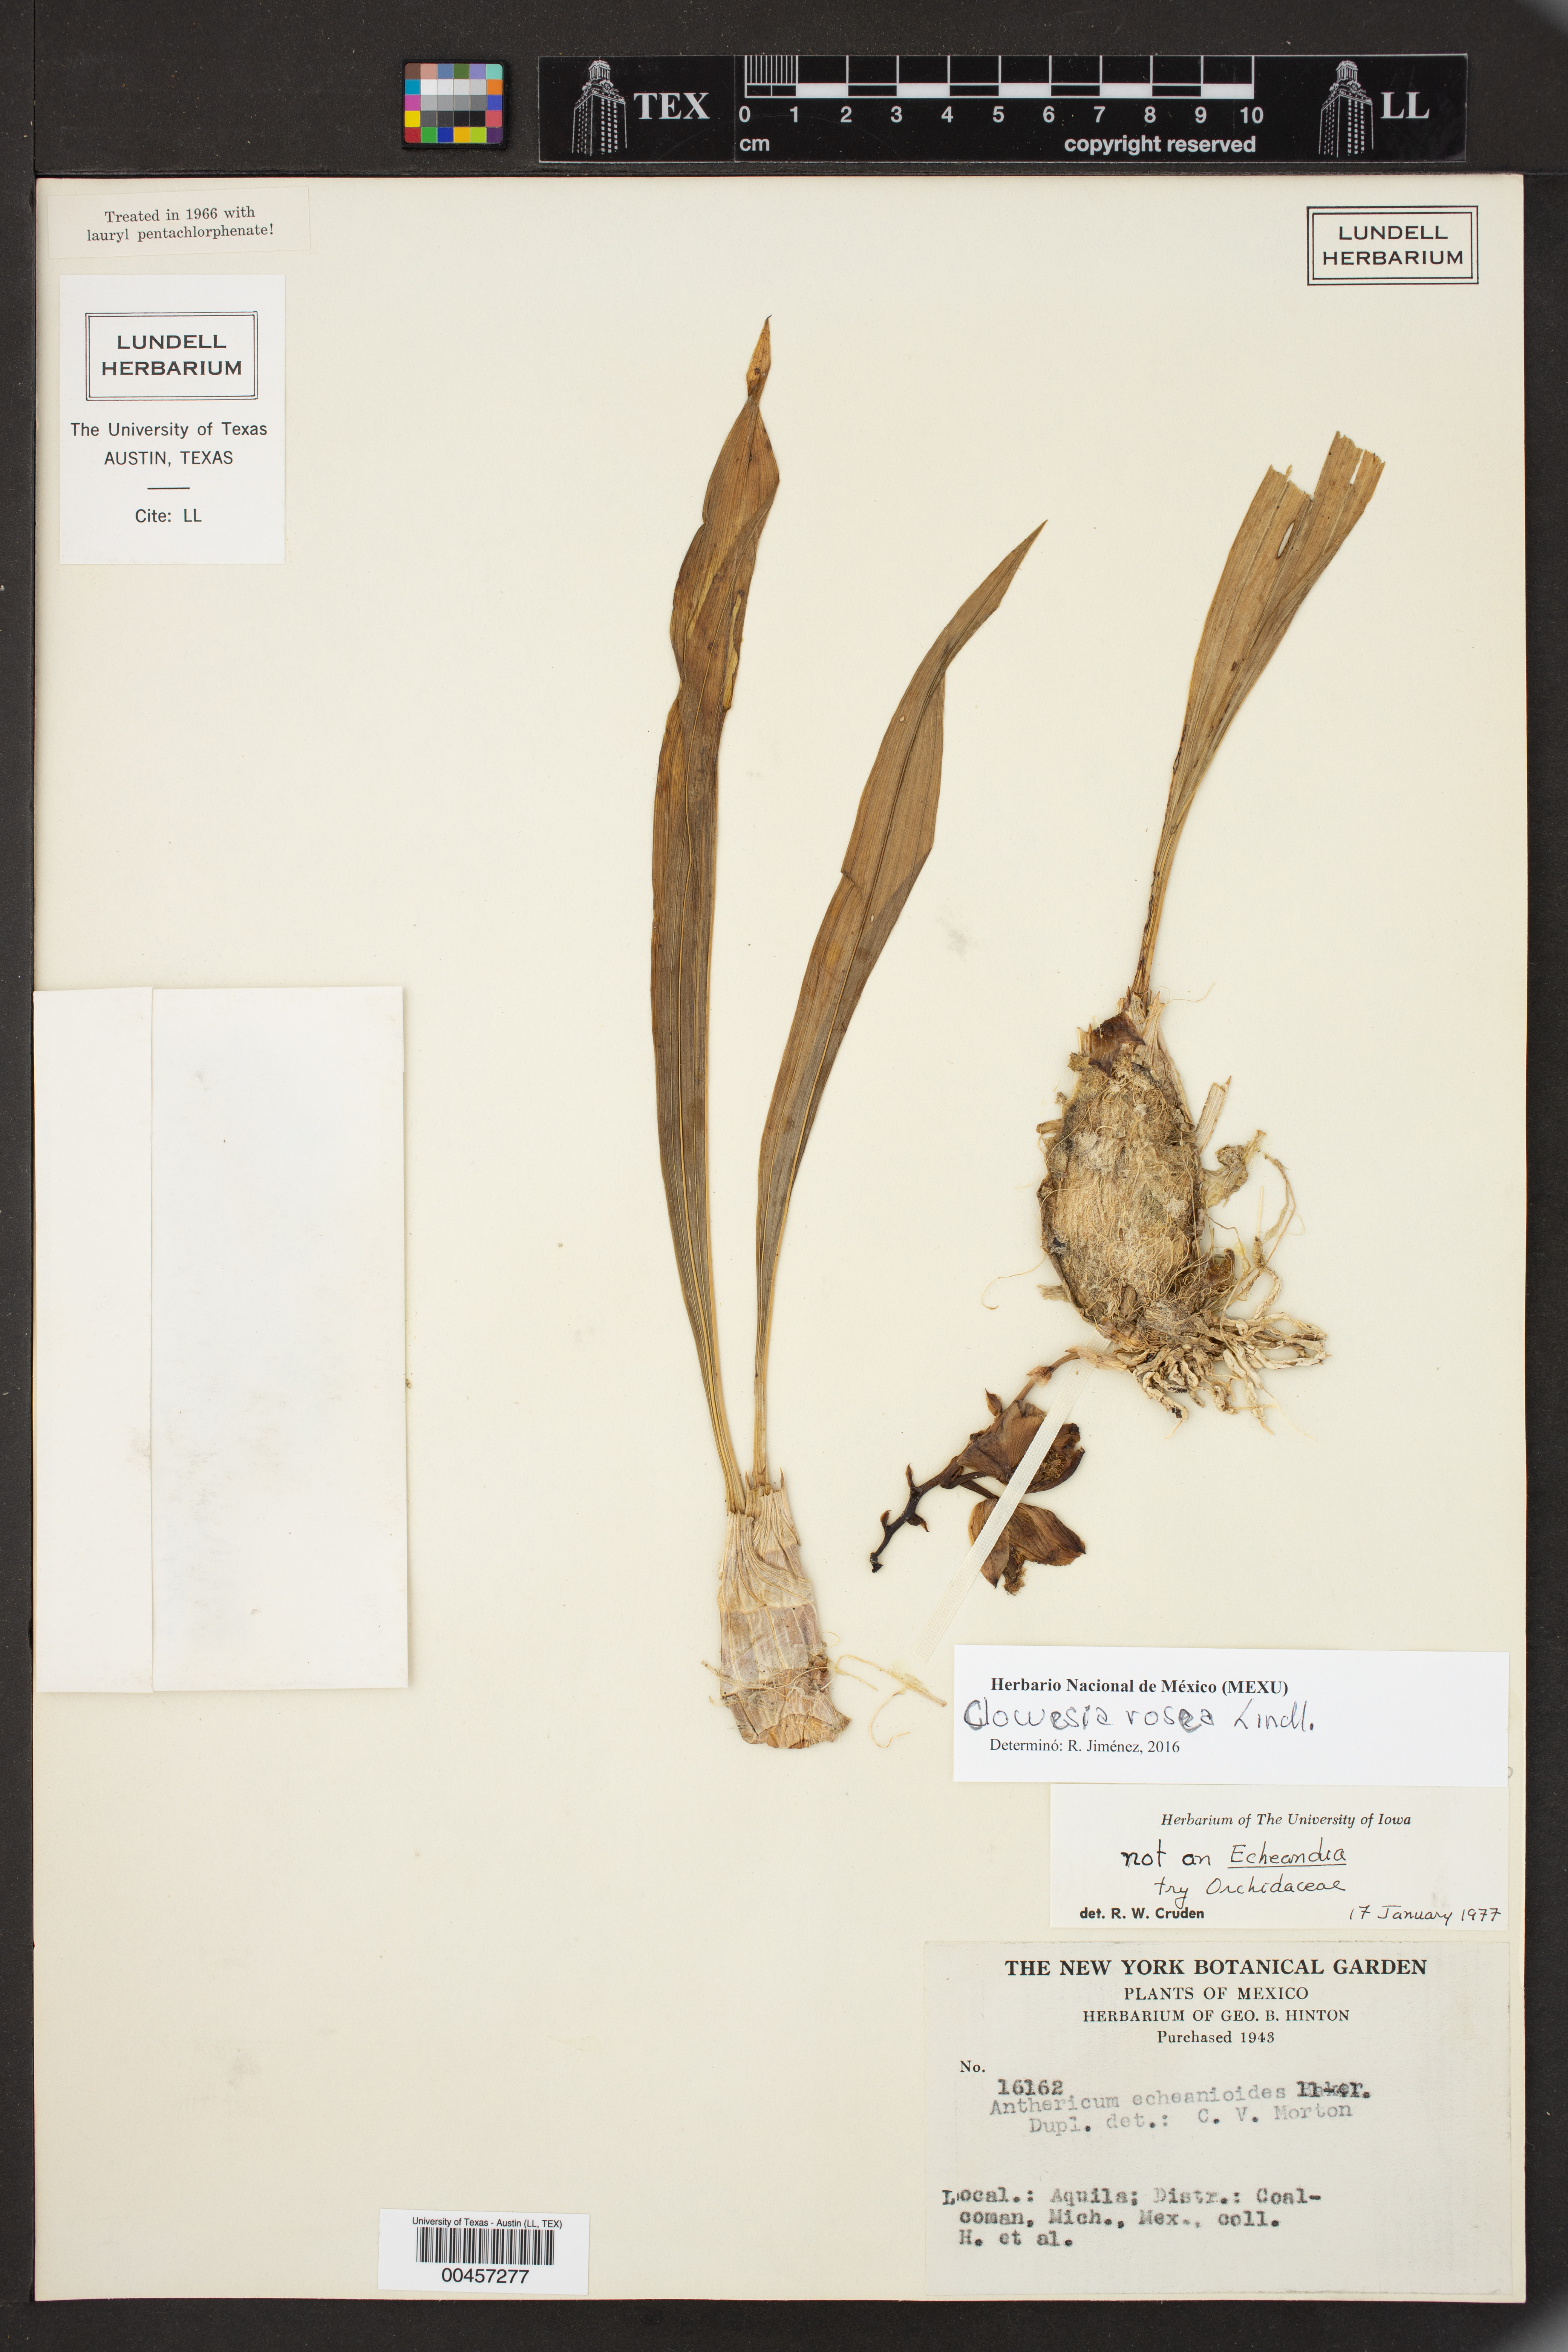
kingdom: Plantae
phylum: Tracheophyta
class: Liliopsida
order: Asparagales
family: Orchidaceae
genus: Clowesia
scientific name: Clowesia rosea
